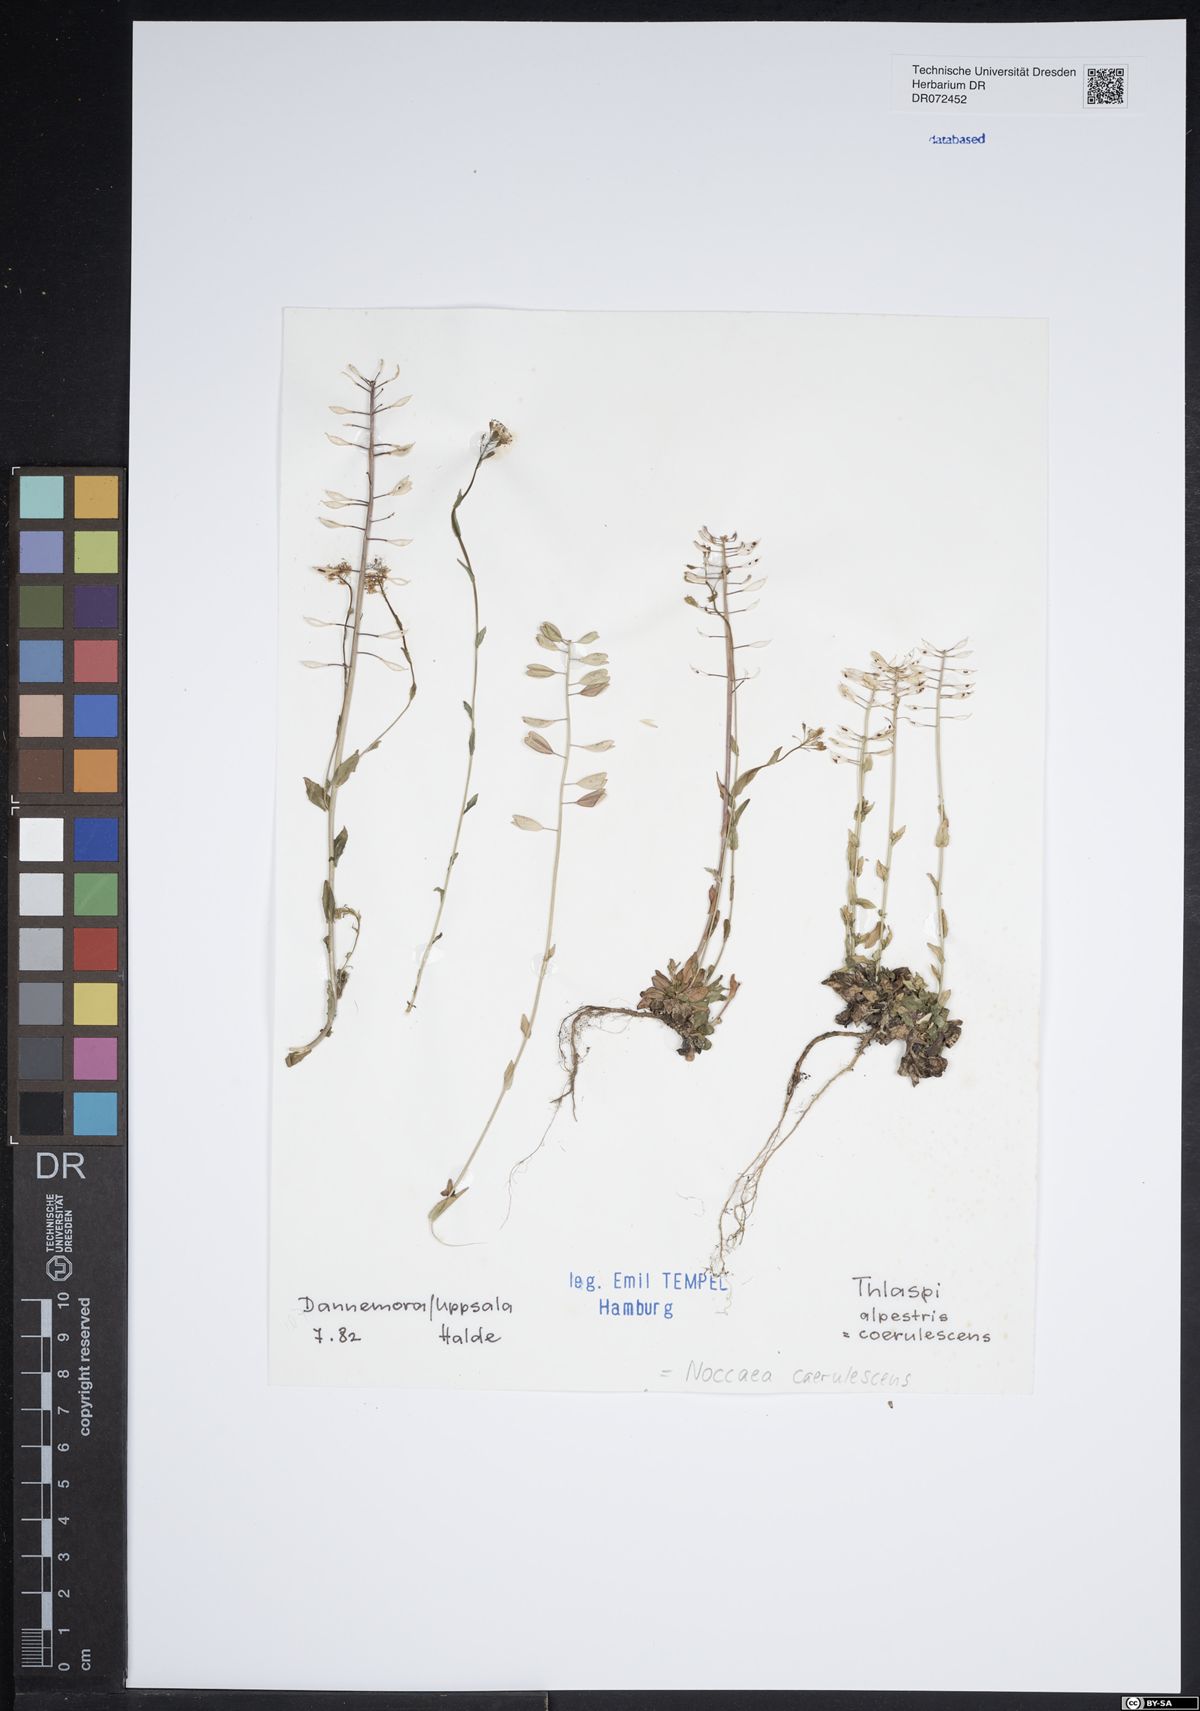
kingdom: Plantae
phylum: Tracheophyta
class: Magnoliopsida
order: Brassicales
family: Brassicaceae
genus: Noccaea
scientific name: Noccaea caerulescens
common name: Alpine pennycress
